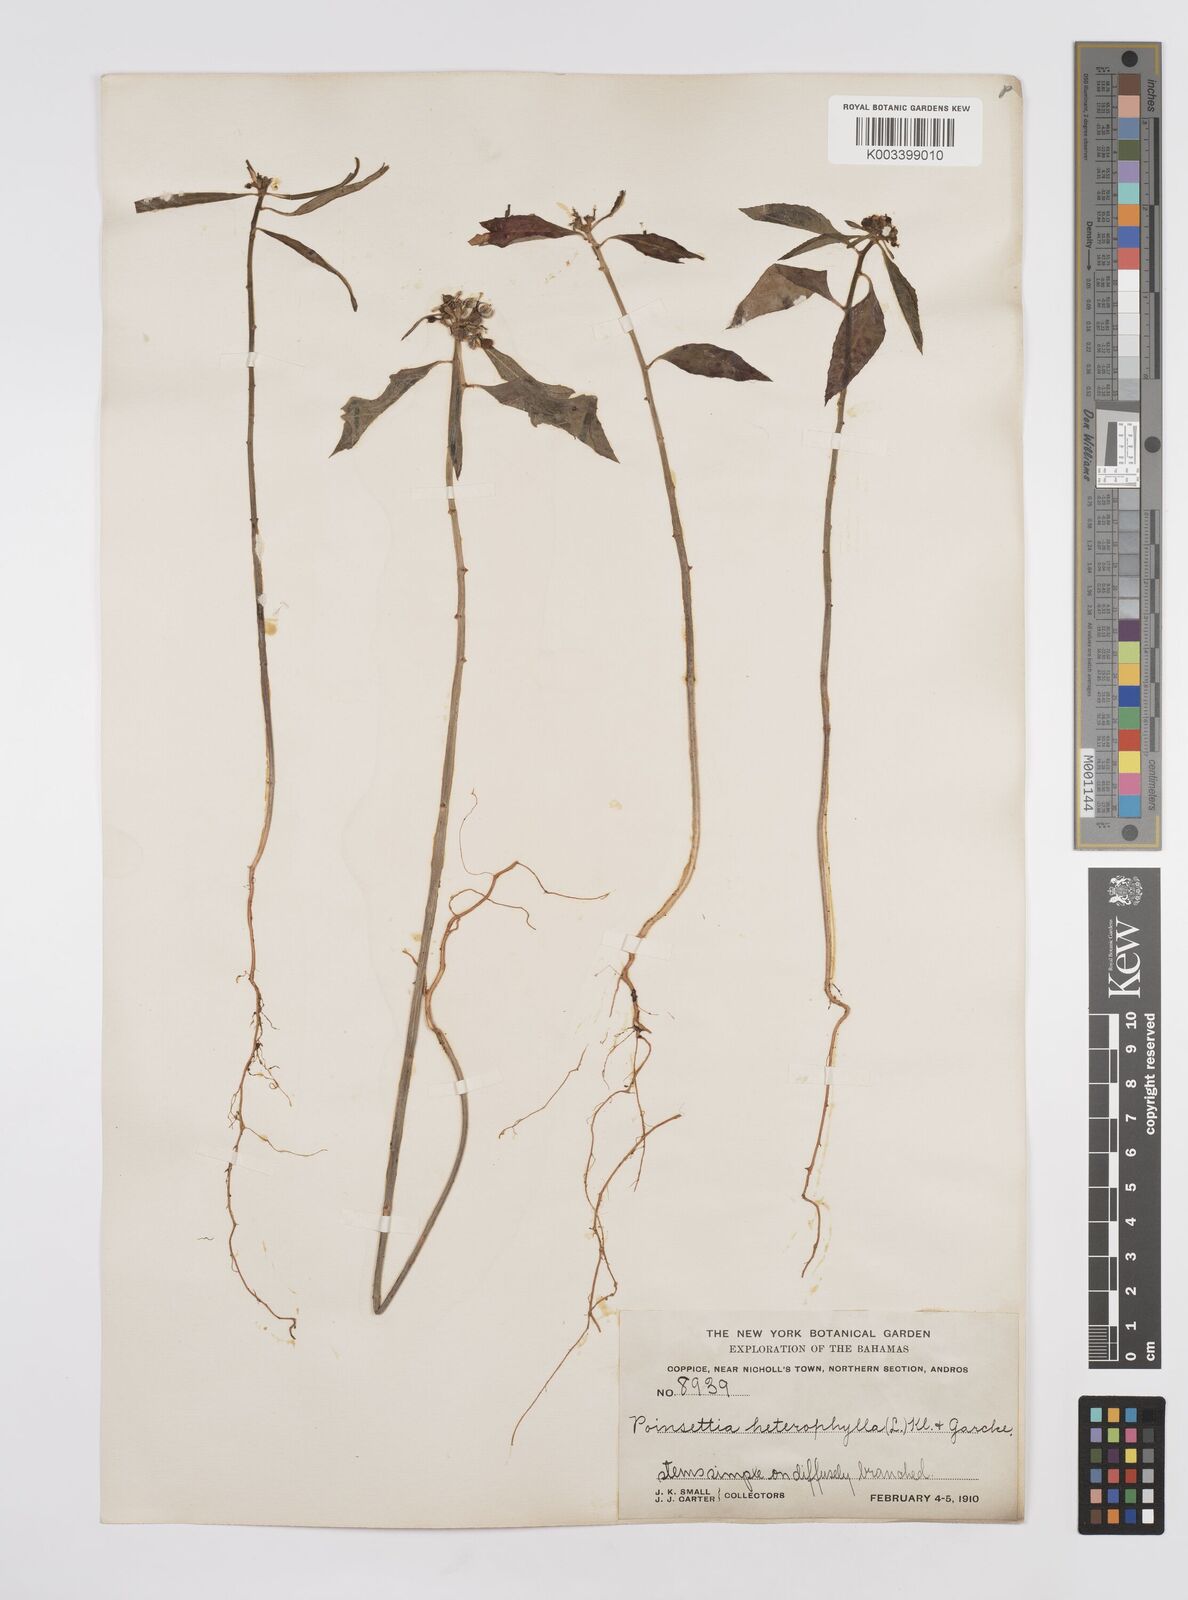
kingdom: Plantae
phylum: Tracheophyta
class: Magnoliopsida
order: Malpighiales
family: Euphorbiaceae
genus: Euphorbia
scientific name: Euphorbia heterophylla
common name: Mexican fireplant
